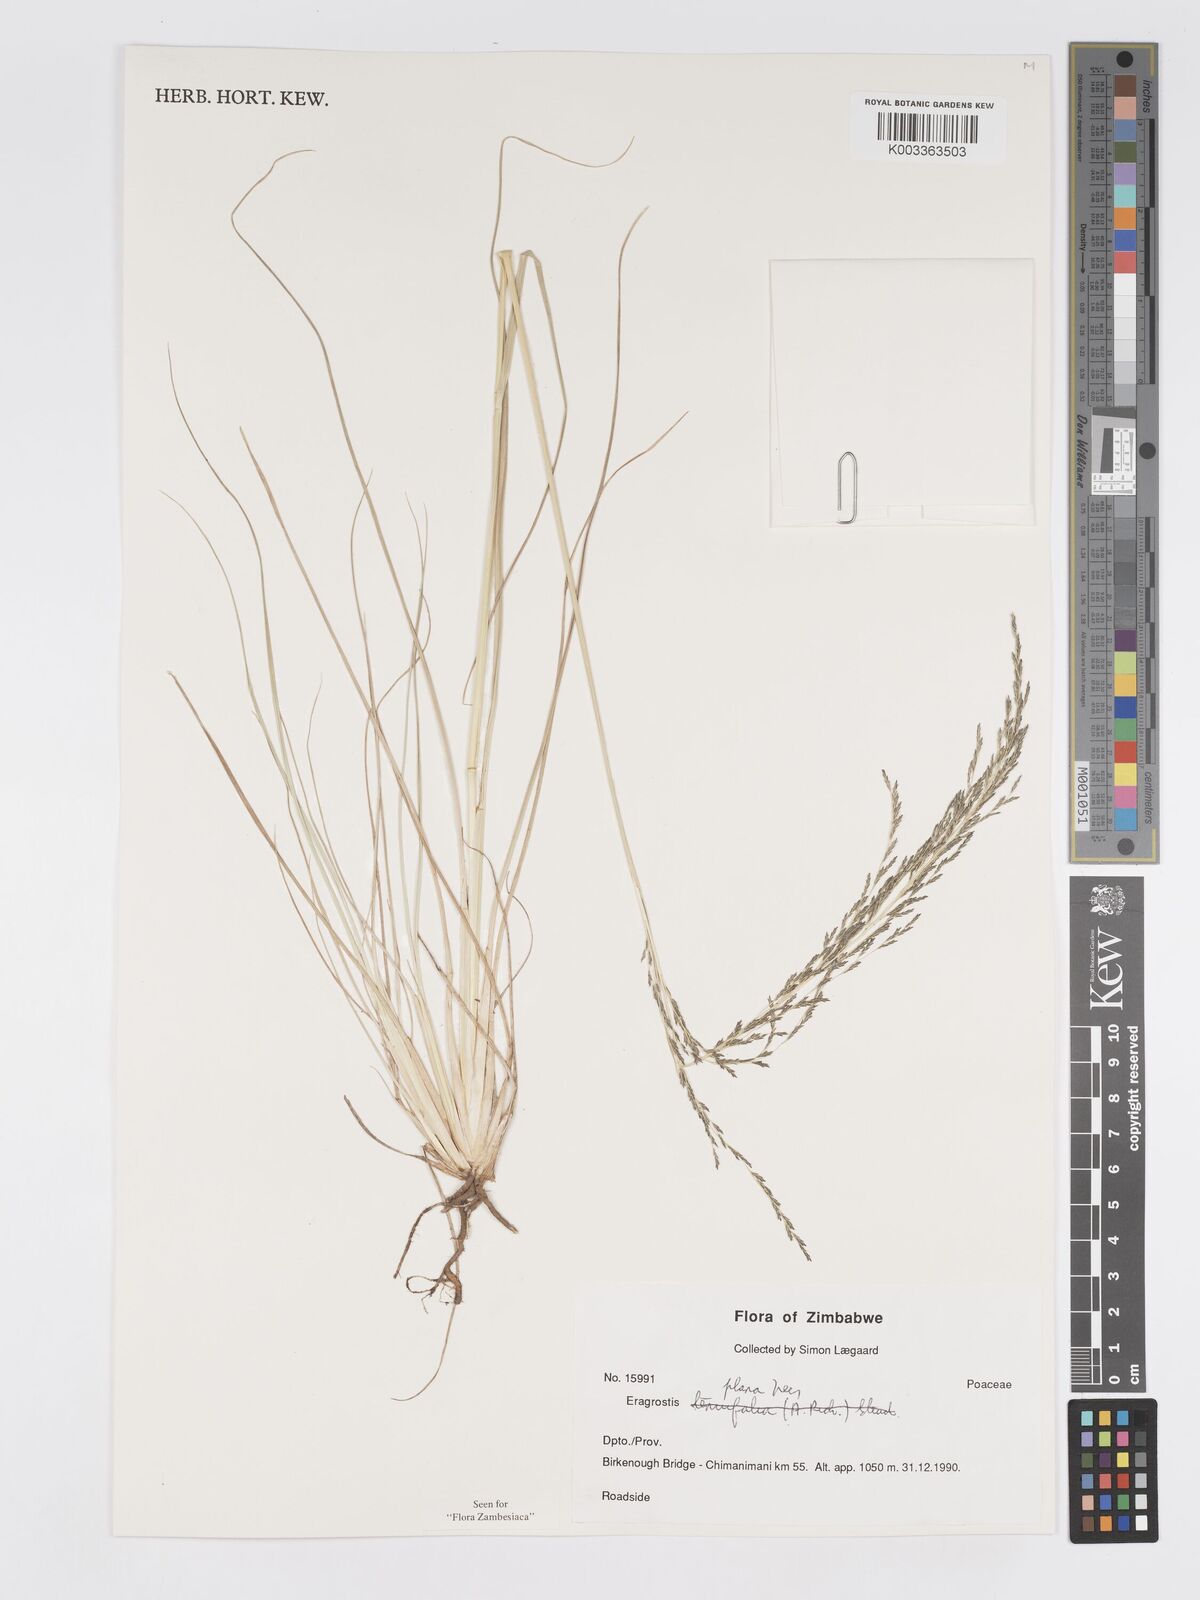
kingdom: Plantae
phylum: Tracheophyta
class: Liliopsida
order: Poales
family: Poaceae
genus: Eragrostis
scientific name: Eragrostis plana
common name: South african lovegrass
